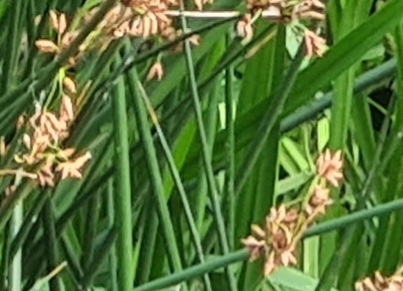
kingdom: Plantae
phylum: Tracheophyta
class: Liliopsida
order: Poales
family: Cyperaceae
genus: Schoenoplectus
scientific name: Schoenoplectus lacustris
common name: Sø-kogleaks
